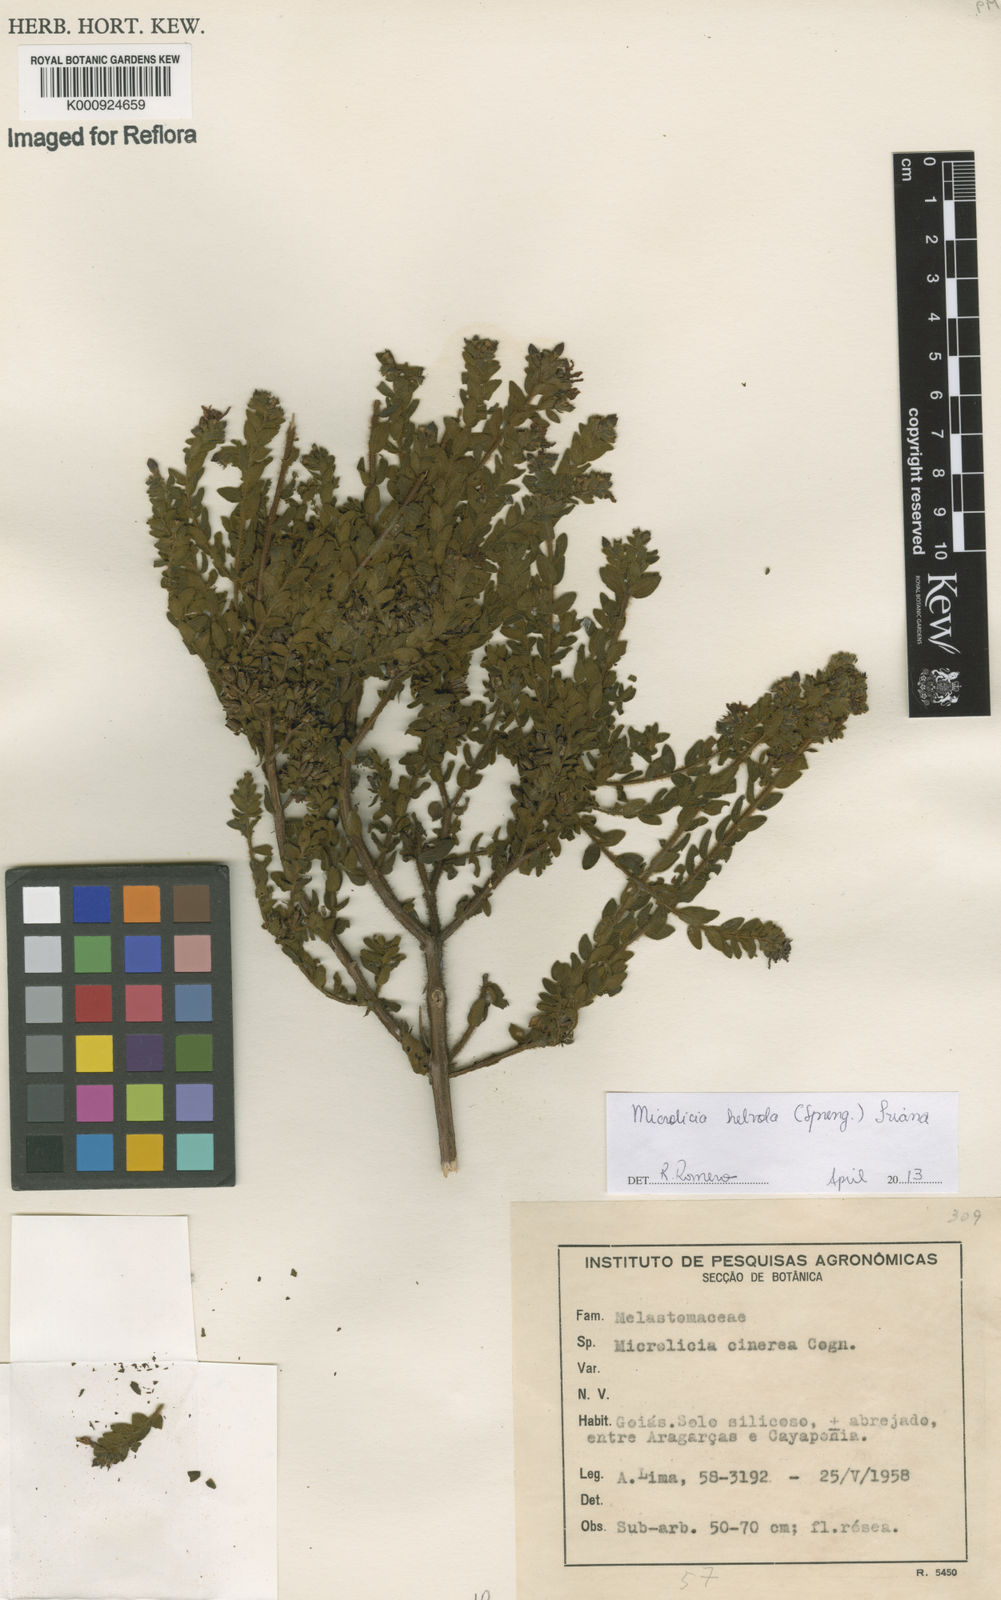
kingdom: Plantae
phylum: Tracheophyta
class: Magnoliopsida
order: Myrtales
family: Melastomataceae
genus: Microlicia
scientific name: Microlicia helvola
